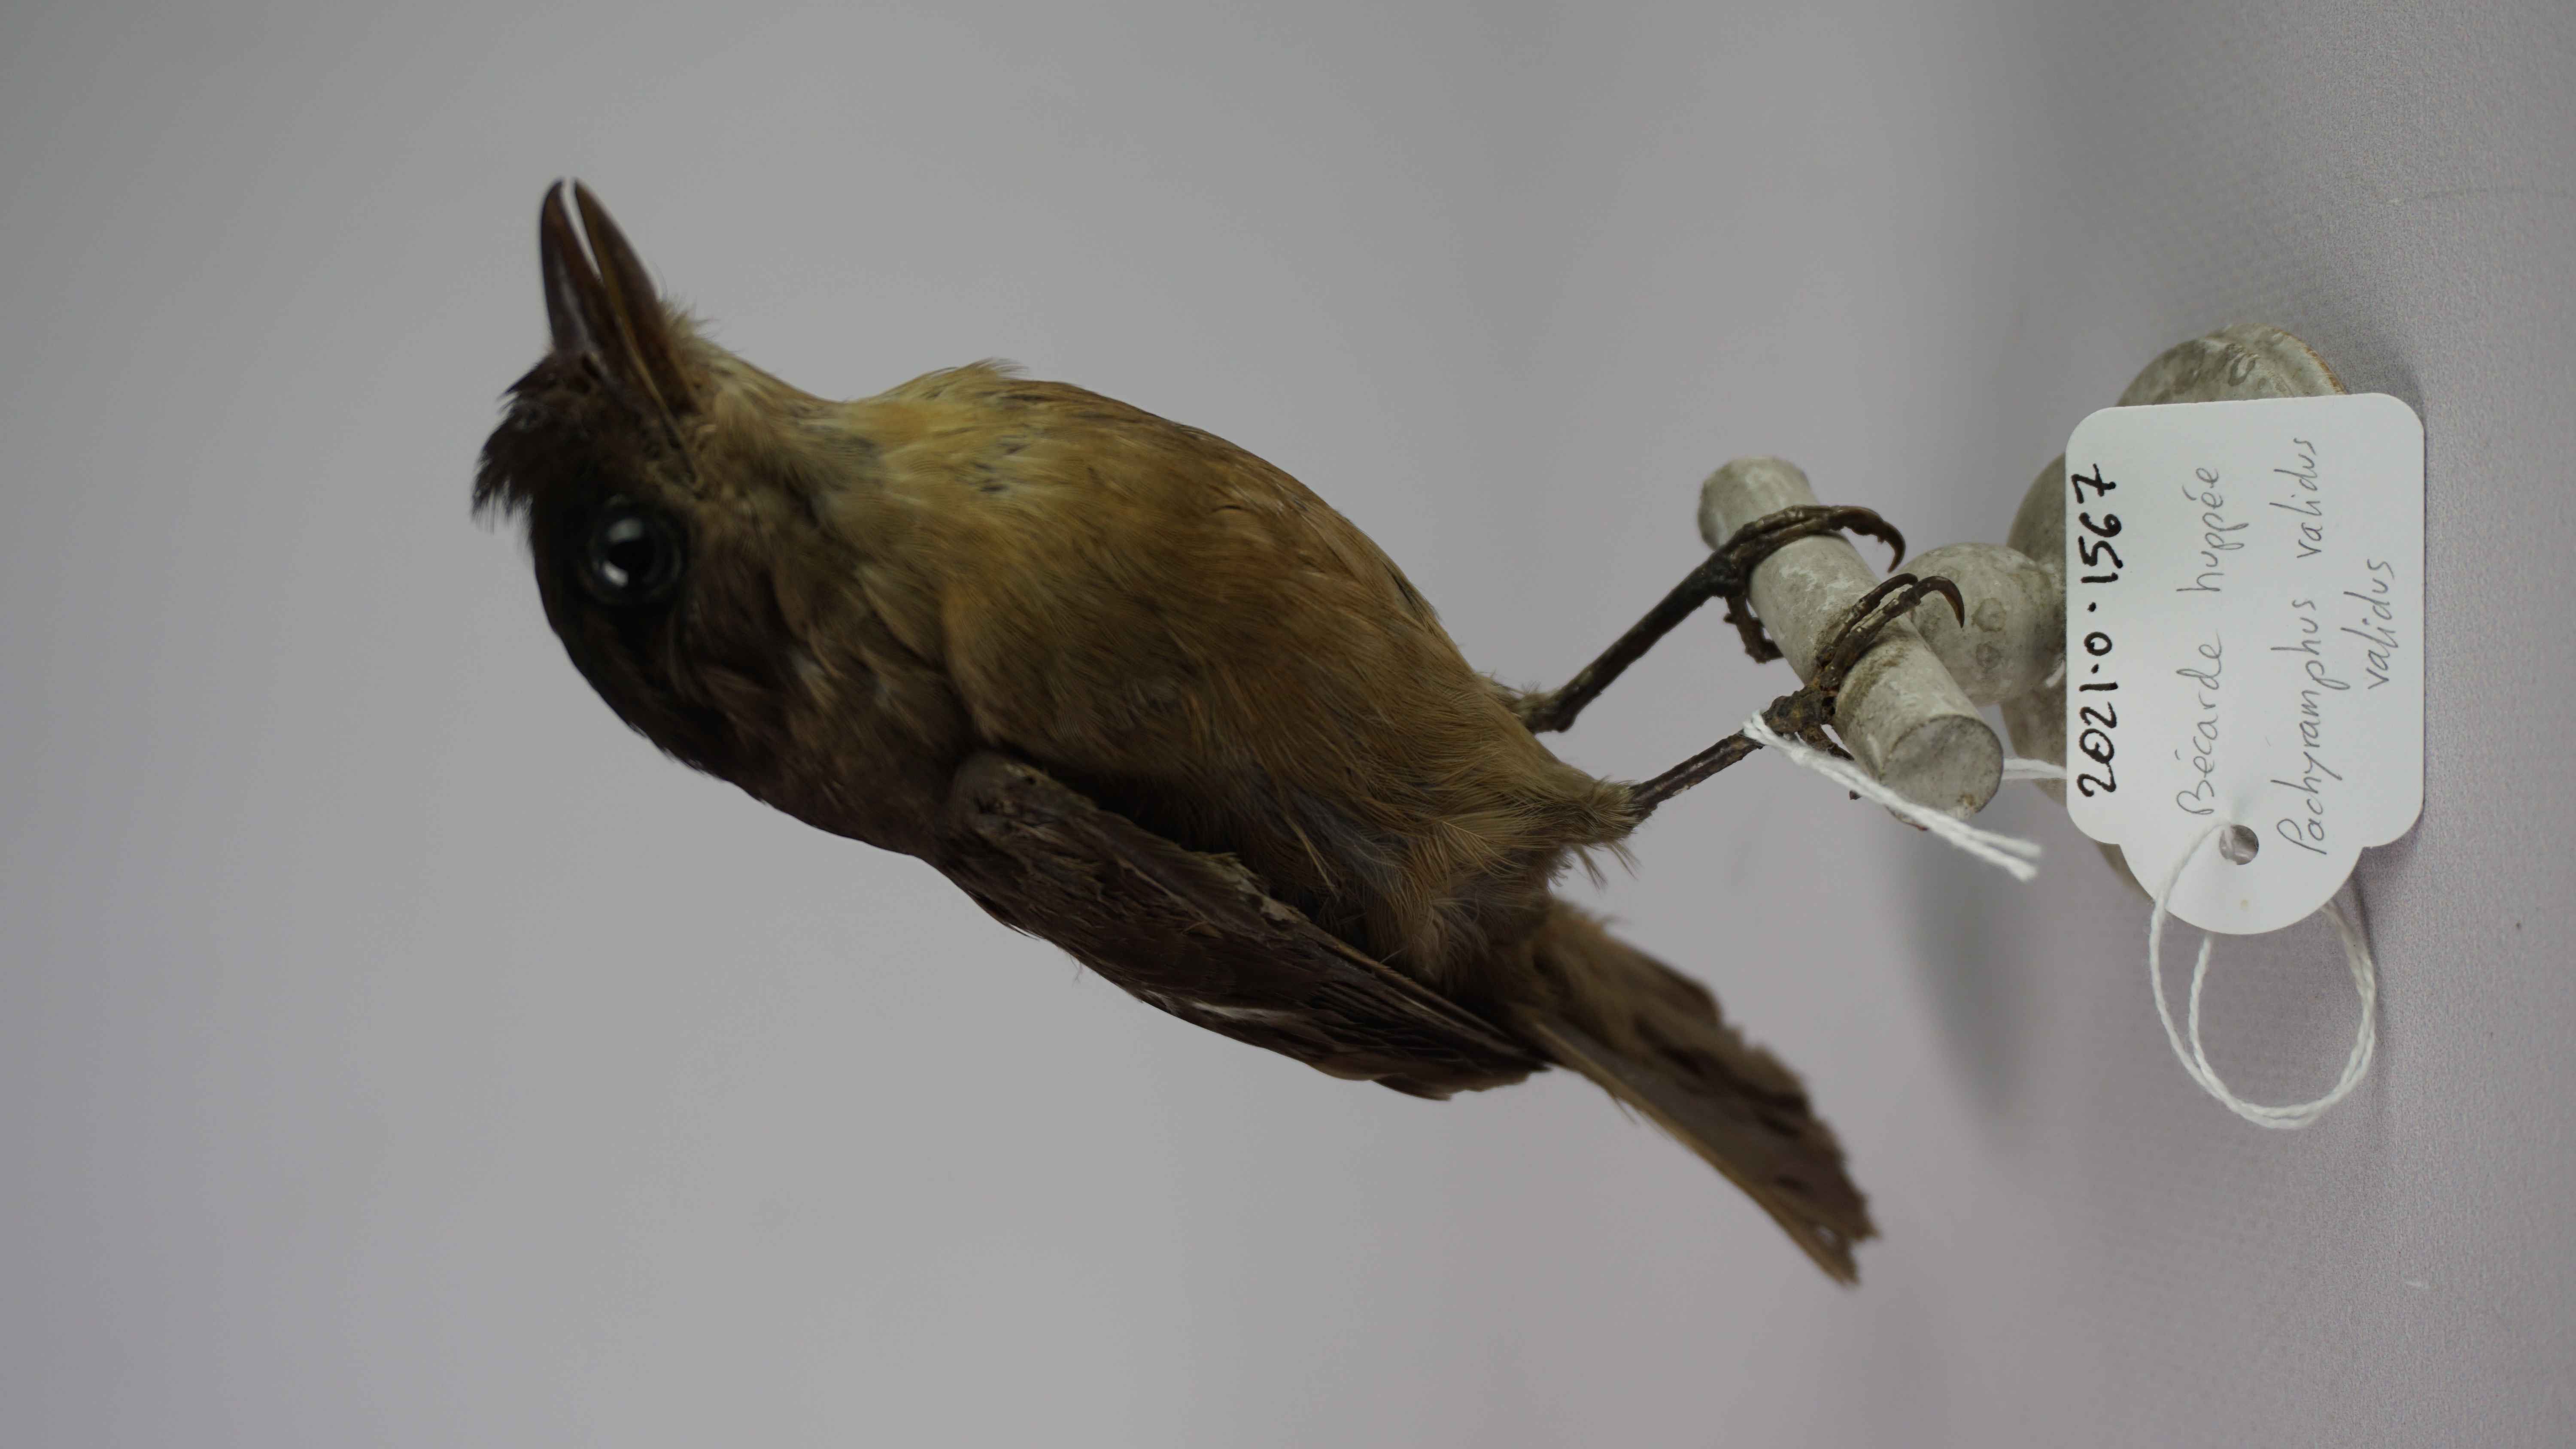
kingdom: Animalia
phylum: Chordata
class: Aves
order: Passeriformes
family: Cotingidae
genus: Pachyramphus
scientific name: Pachyramphus validus
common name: Crested becard
